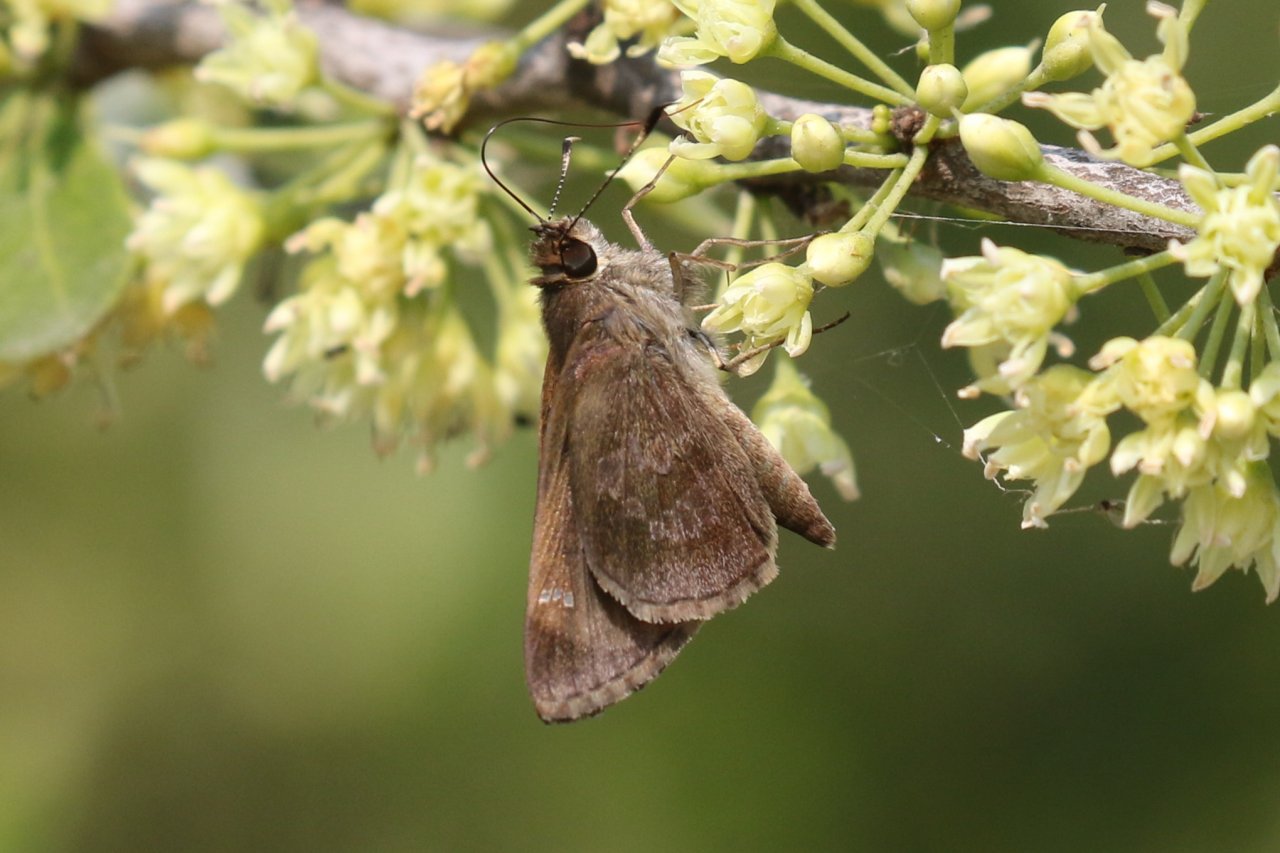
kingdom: Animalia
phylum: Arthropoda
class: Insecta
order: Lepidoptera
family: Hesperiidae
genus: Cymaenes
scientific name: Cymaenes odilia
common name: Fawn-spotted Skipper
